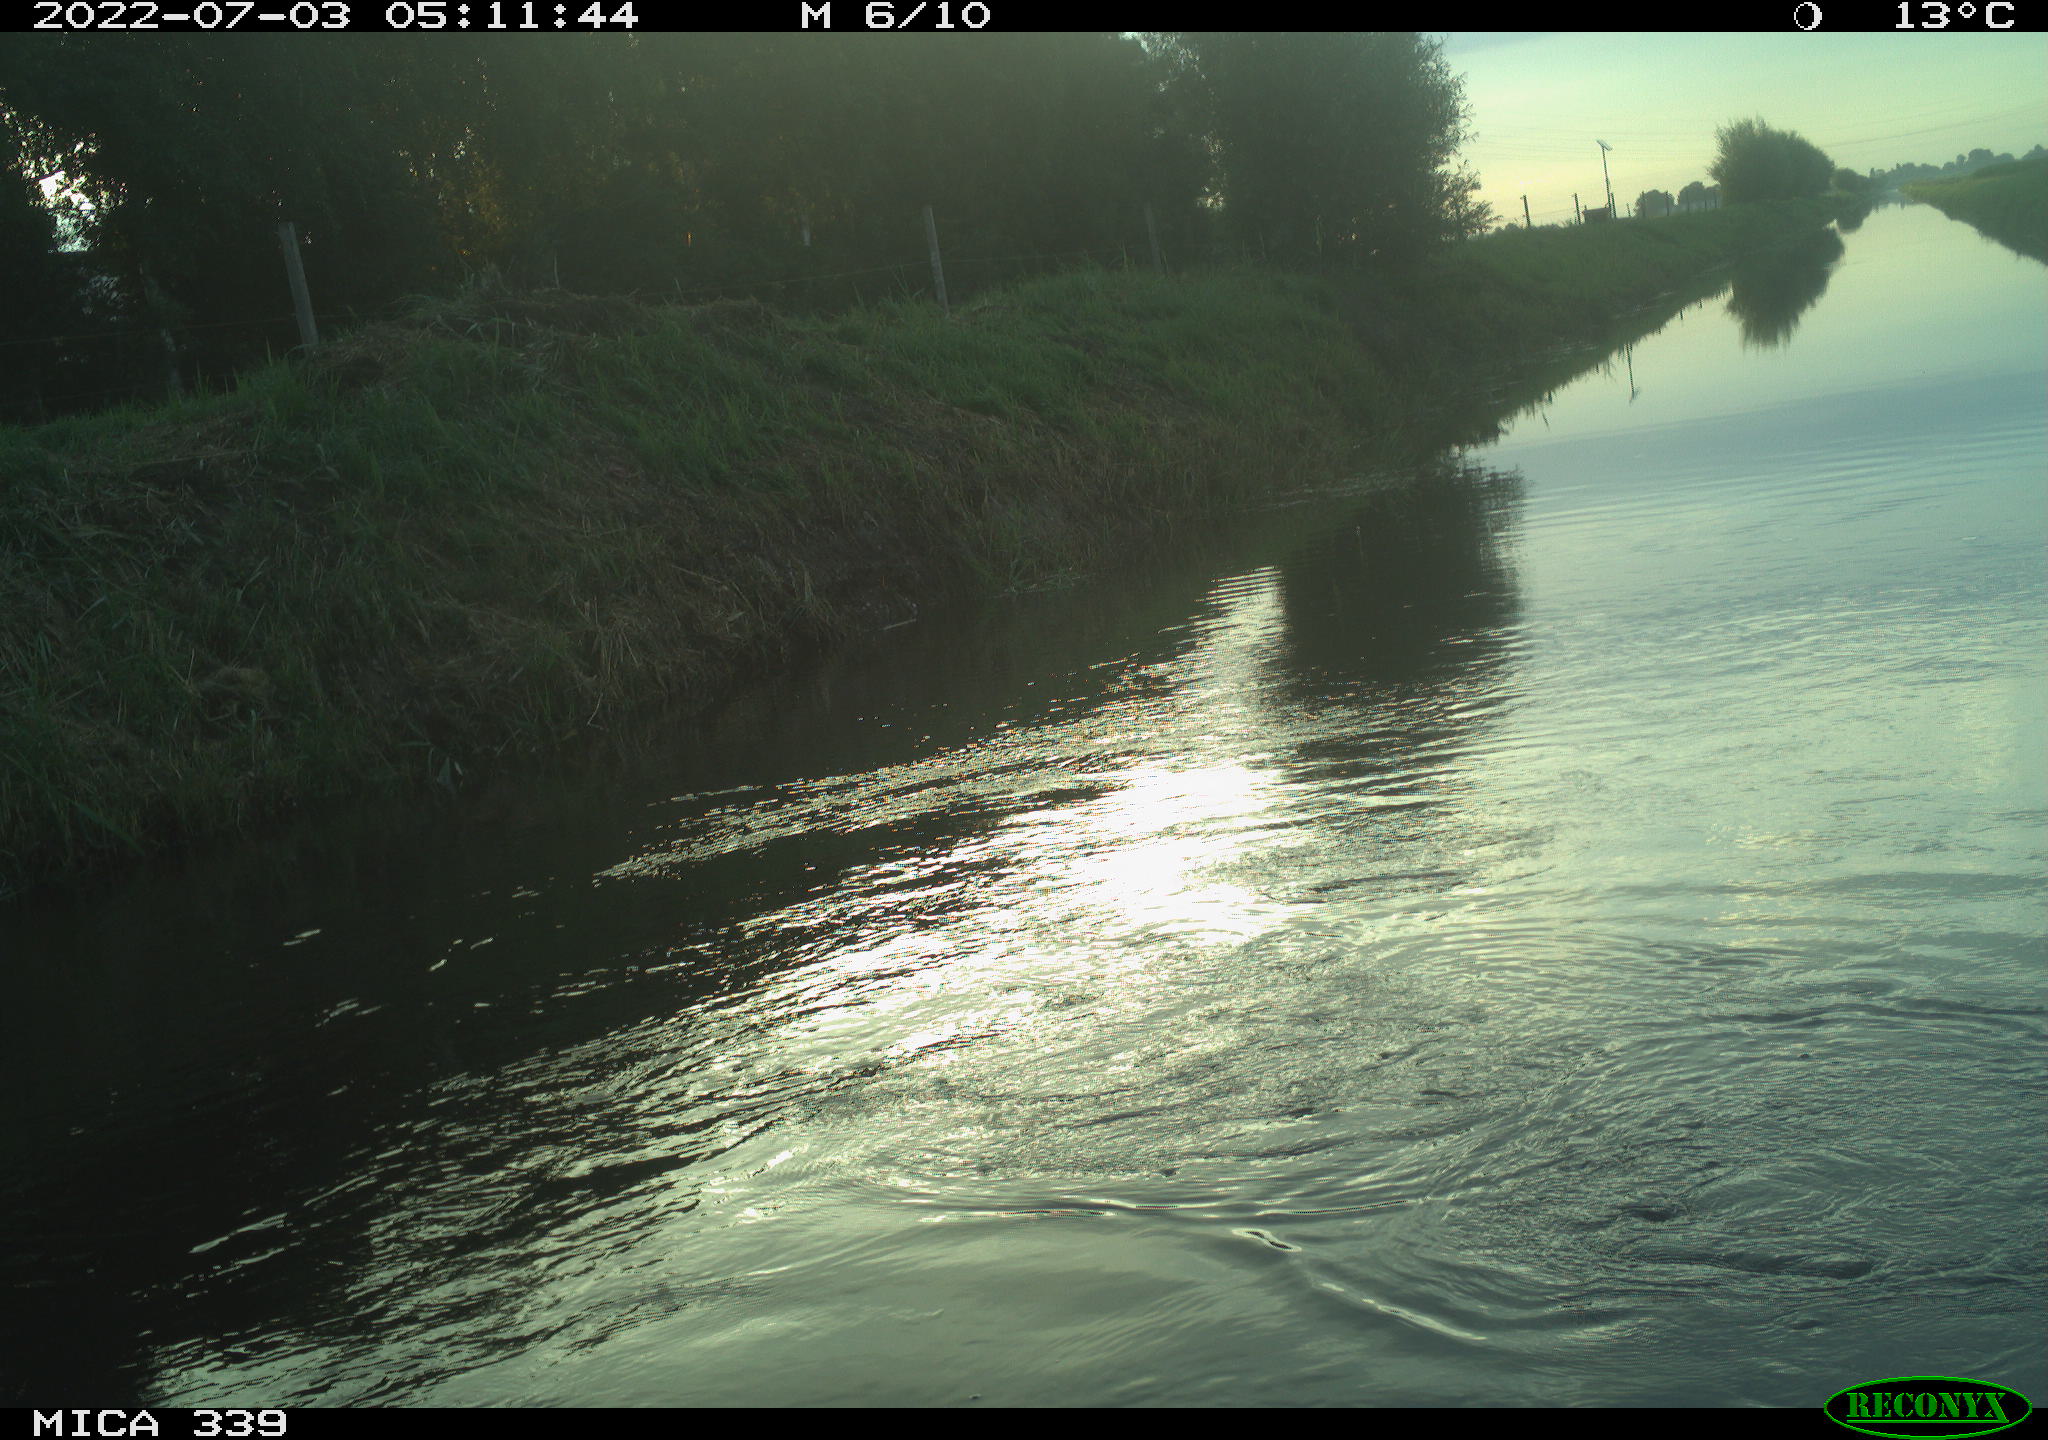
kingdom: Animalia
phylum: Chordata
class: Aves
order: Pelecaniformes
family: Ardeidae
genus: Ardea
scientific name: Ardea
